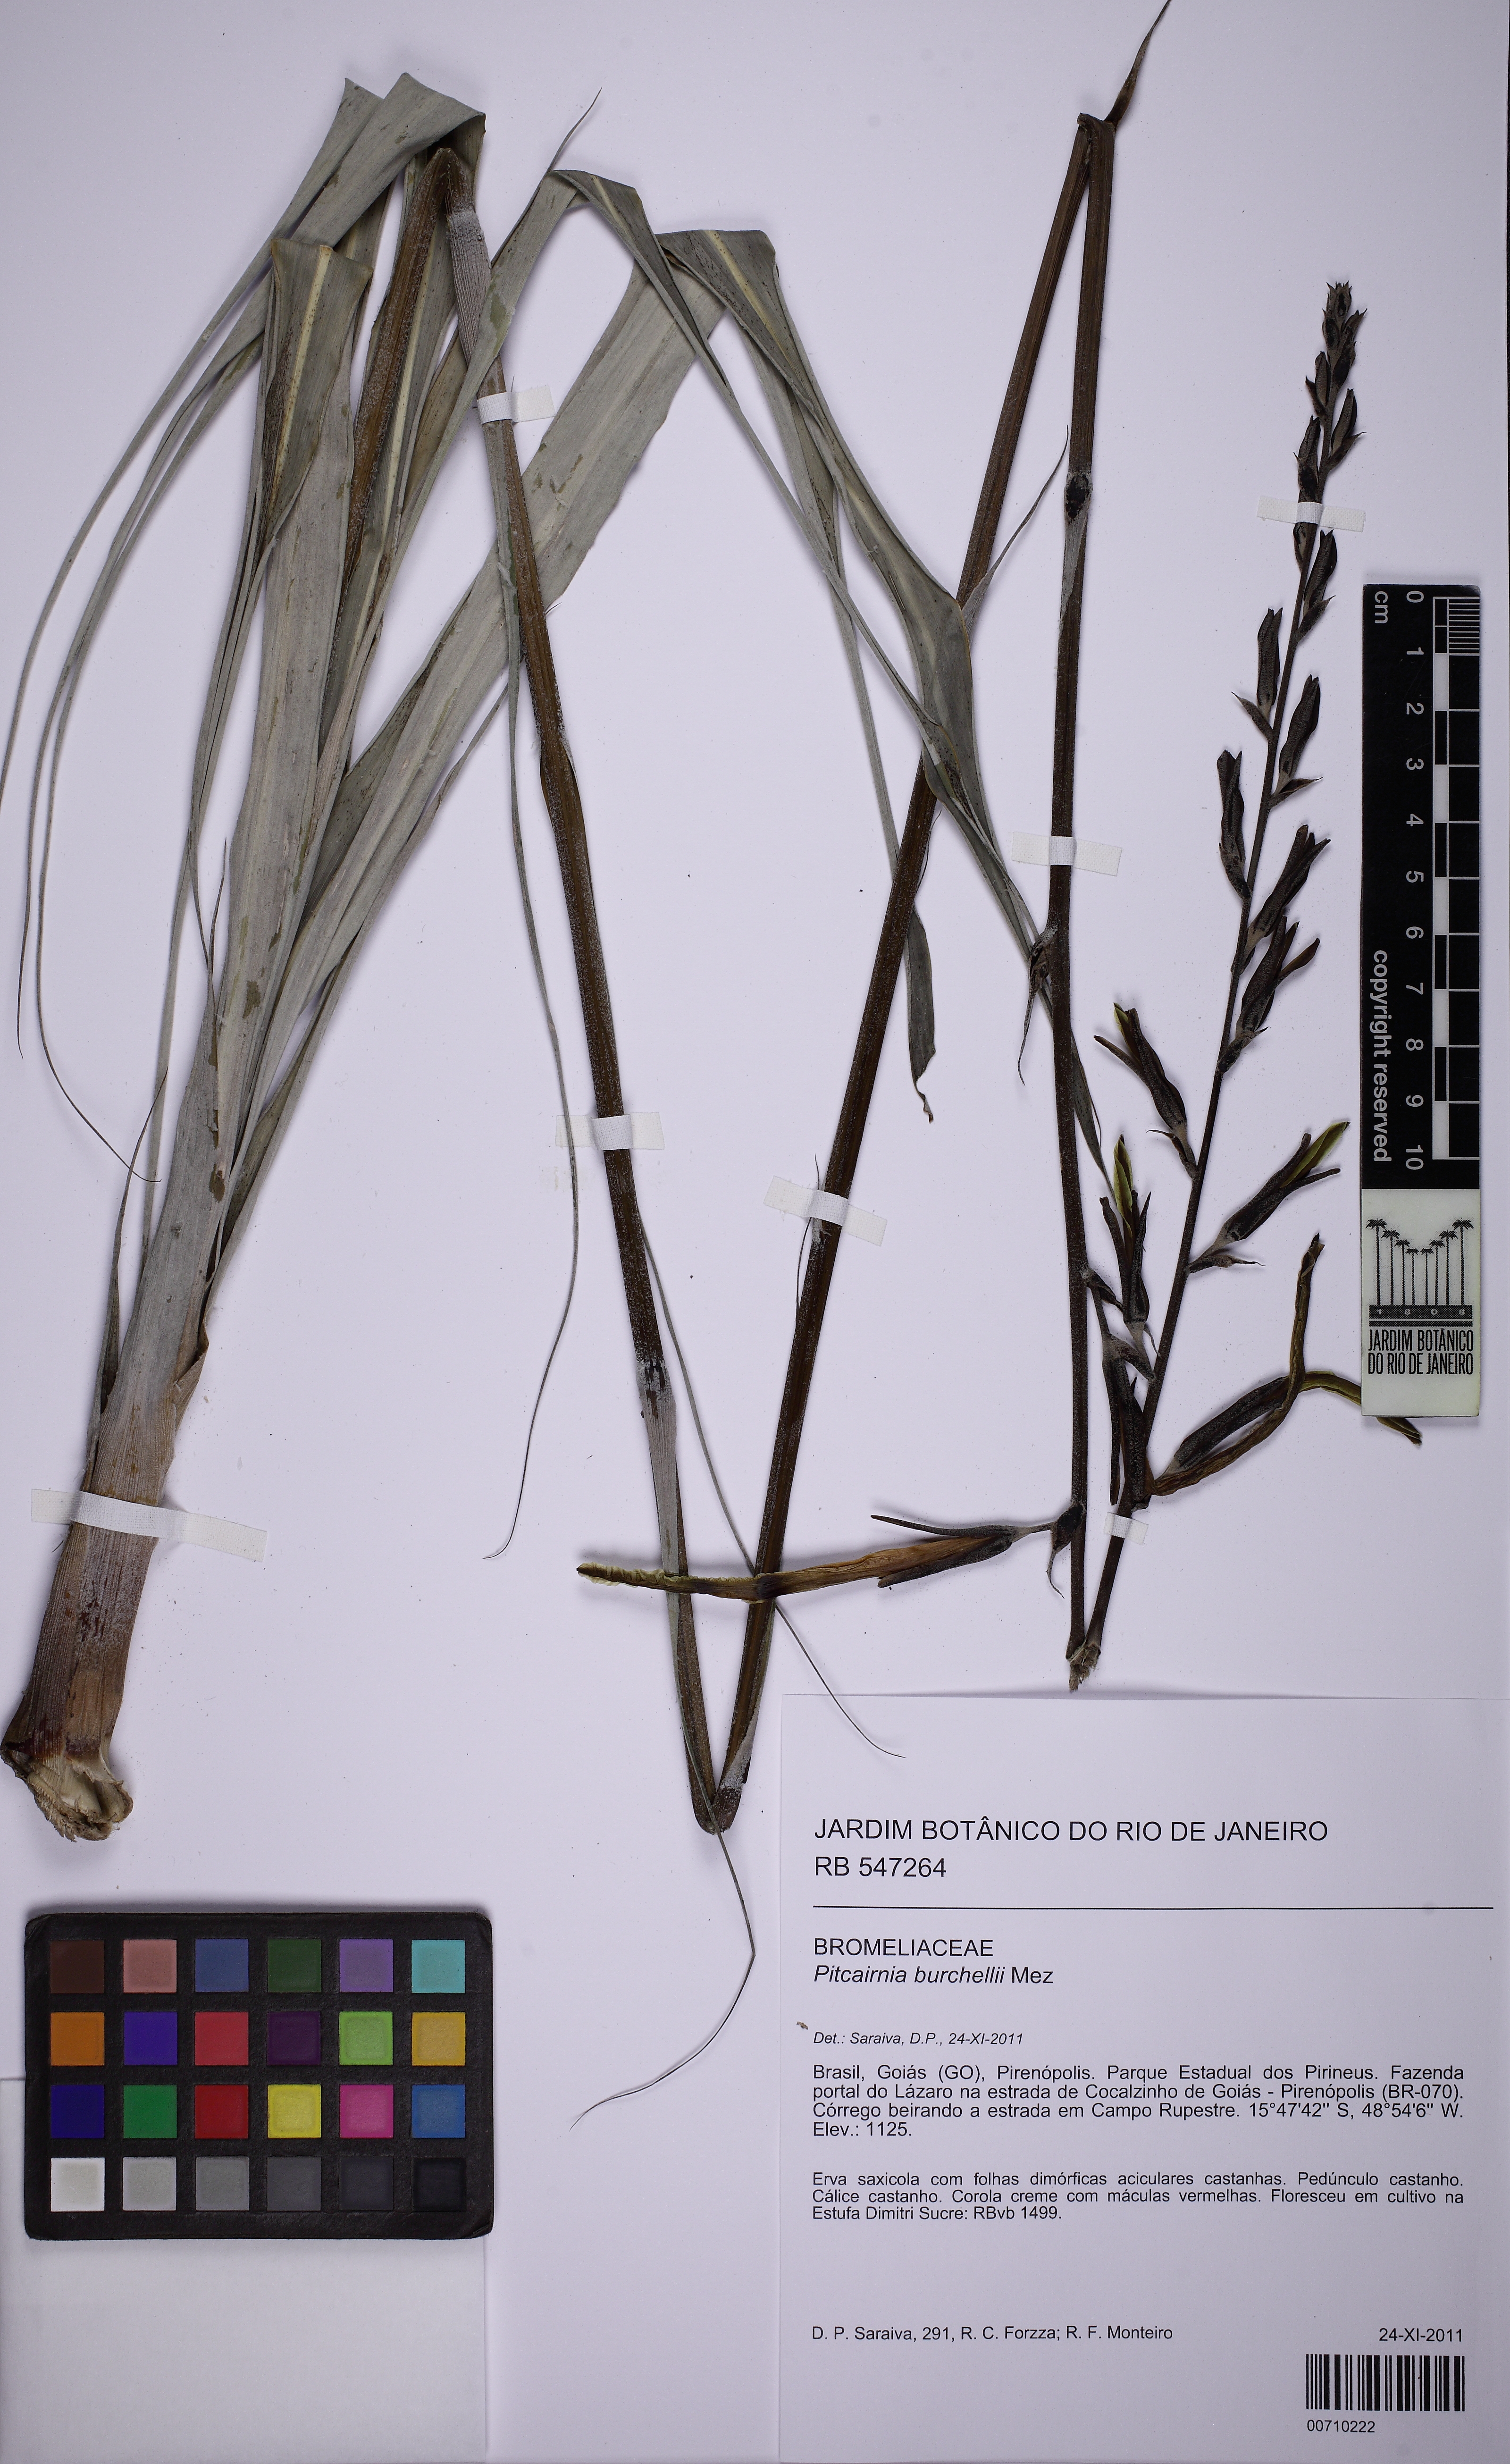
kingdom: Plantae
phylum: Tracheophyta
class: Liliopsida
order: Poales
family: Bromeliaceae
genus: Pitcairnia
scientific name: Pitcairnia lanuginosa
